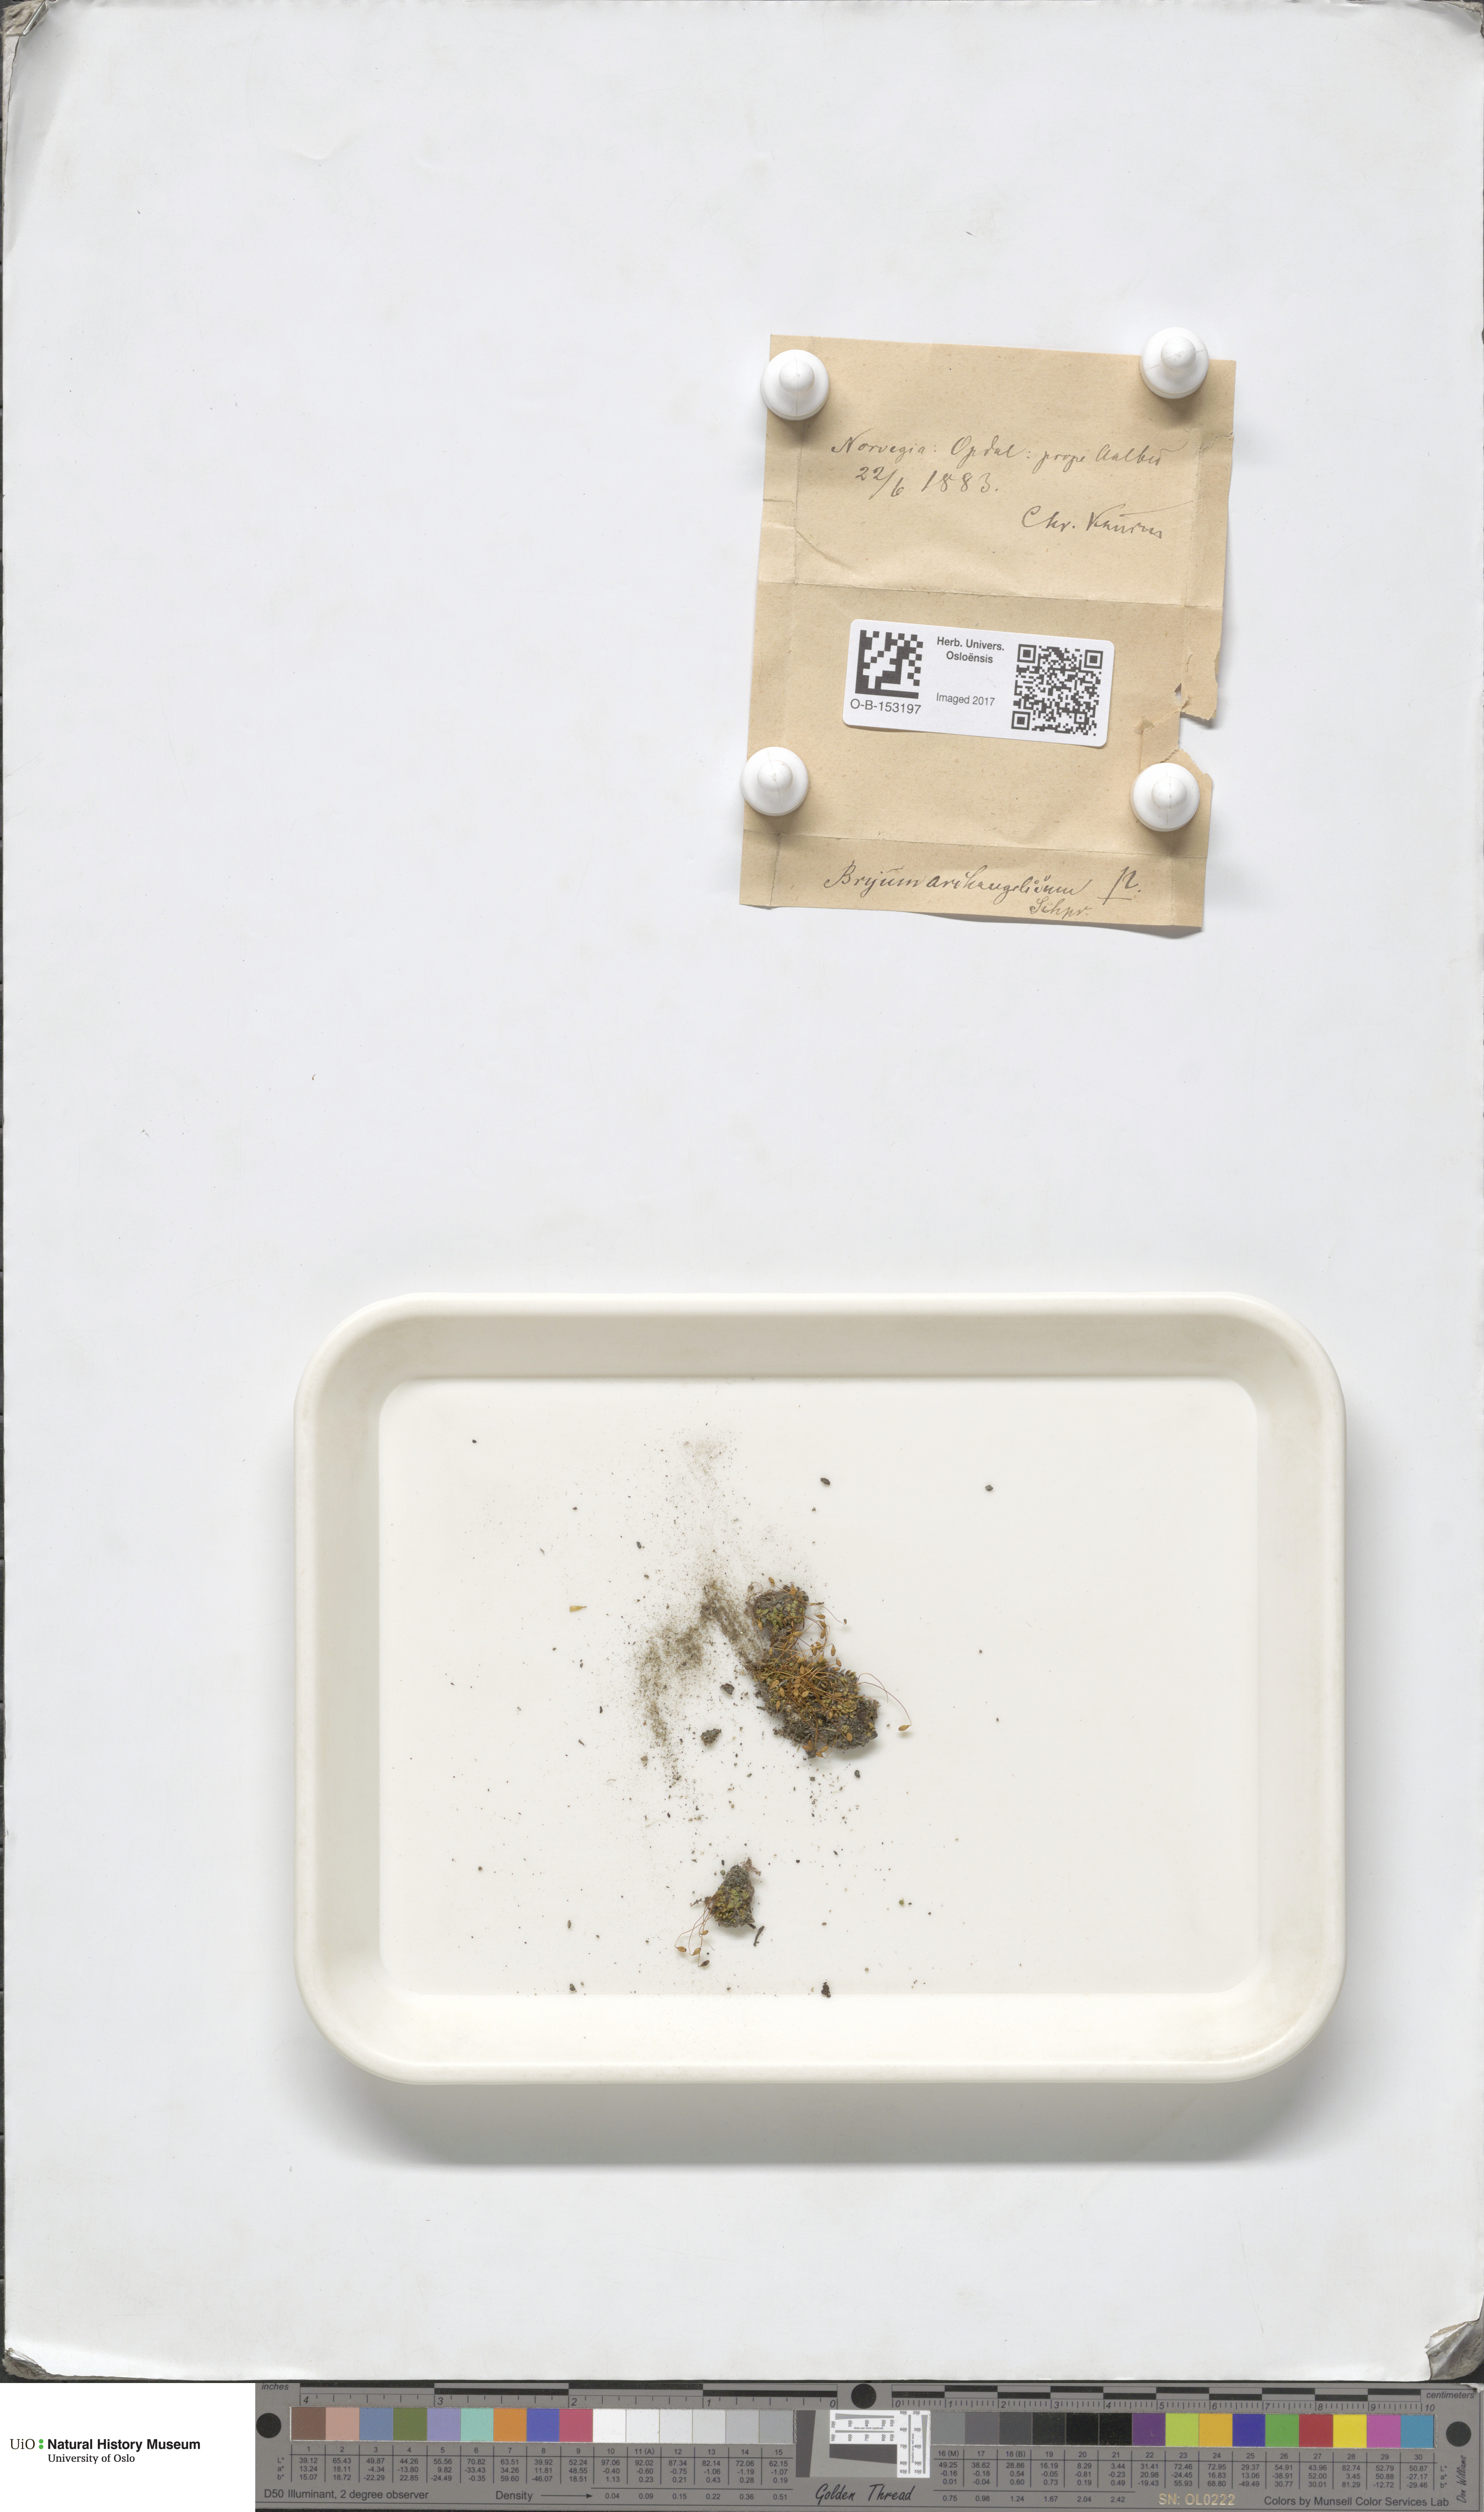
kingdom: Plantae
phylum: Bryophyta
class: Bryopsida
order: Bryales
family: Bryaceae
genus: Ptychostomum
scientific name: Ptychostomum inclinatum
